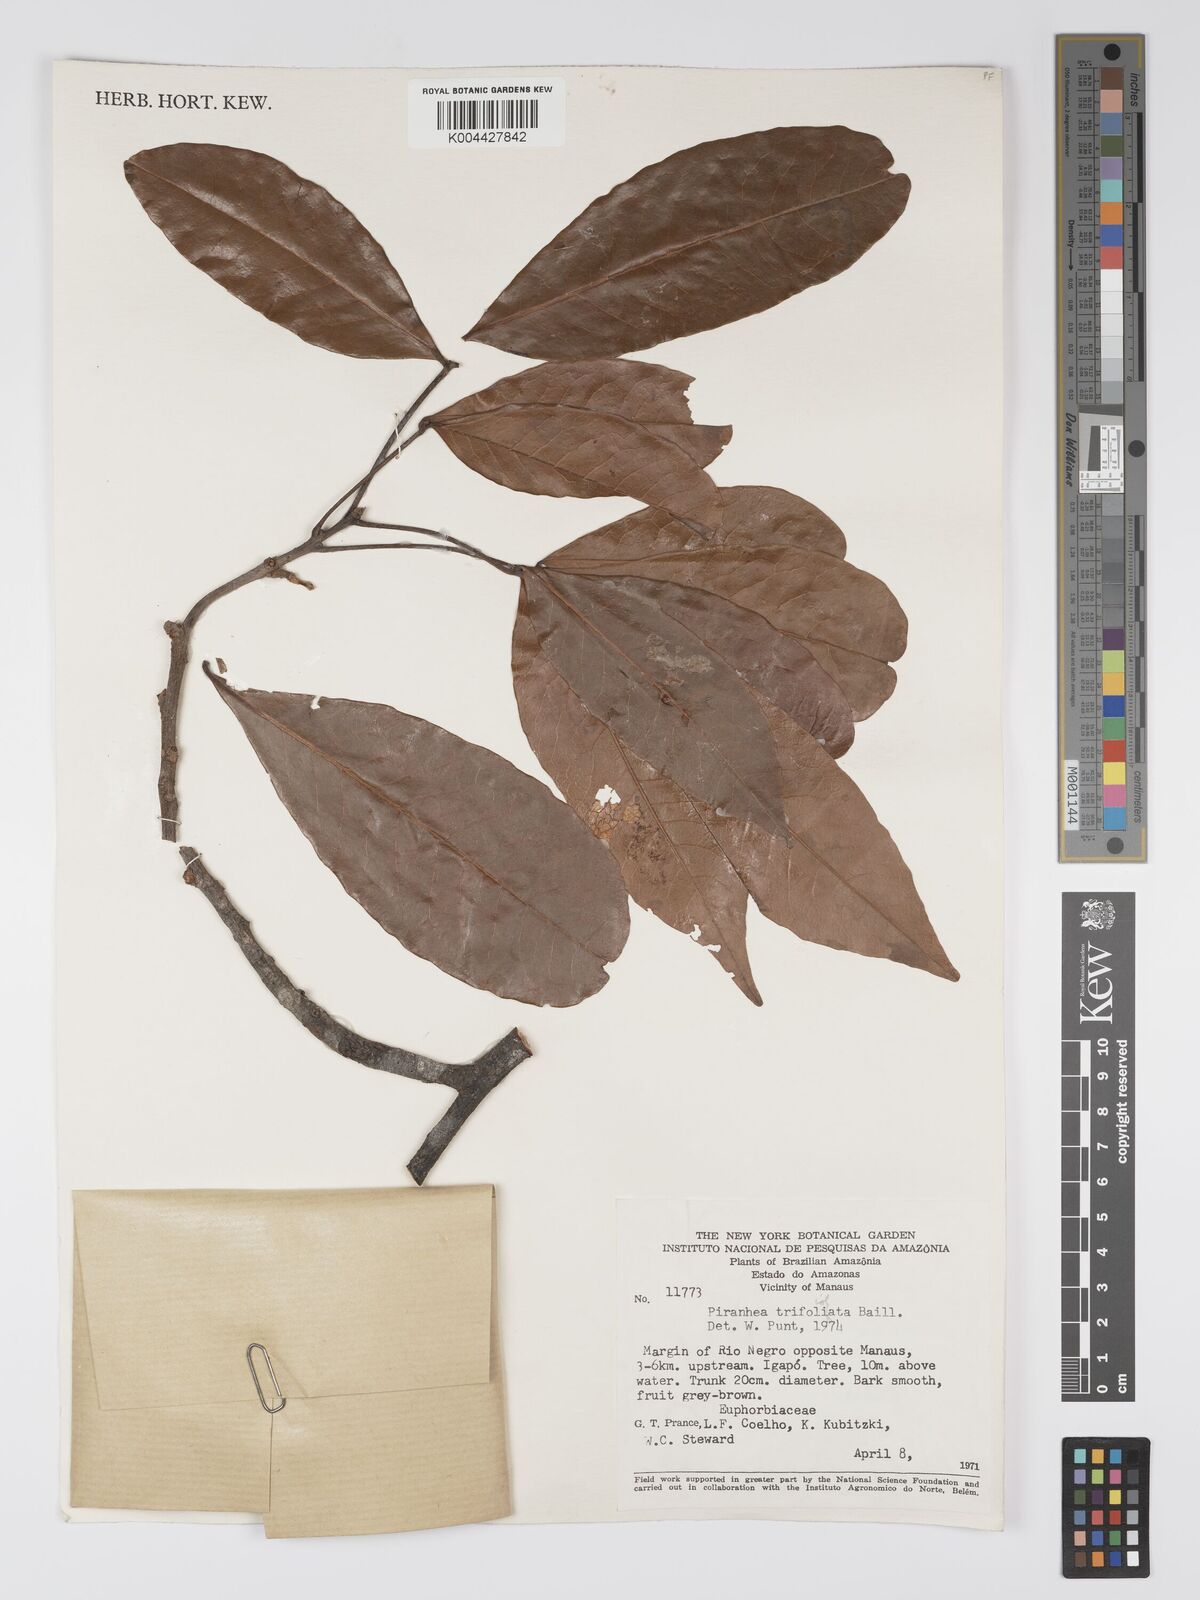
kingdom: Plantae
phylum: Tracheophyta
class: Magnoliopsida
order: Malpighiales
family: Picrodendraceae
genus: Piranhea
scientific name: Piranhea trifoliolata
